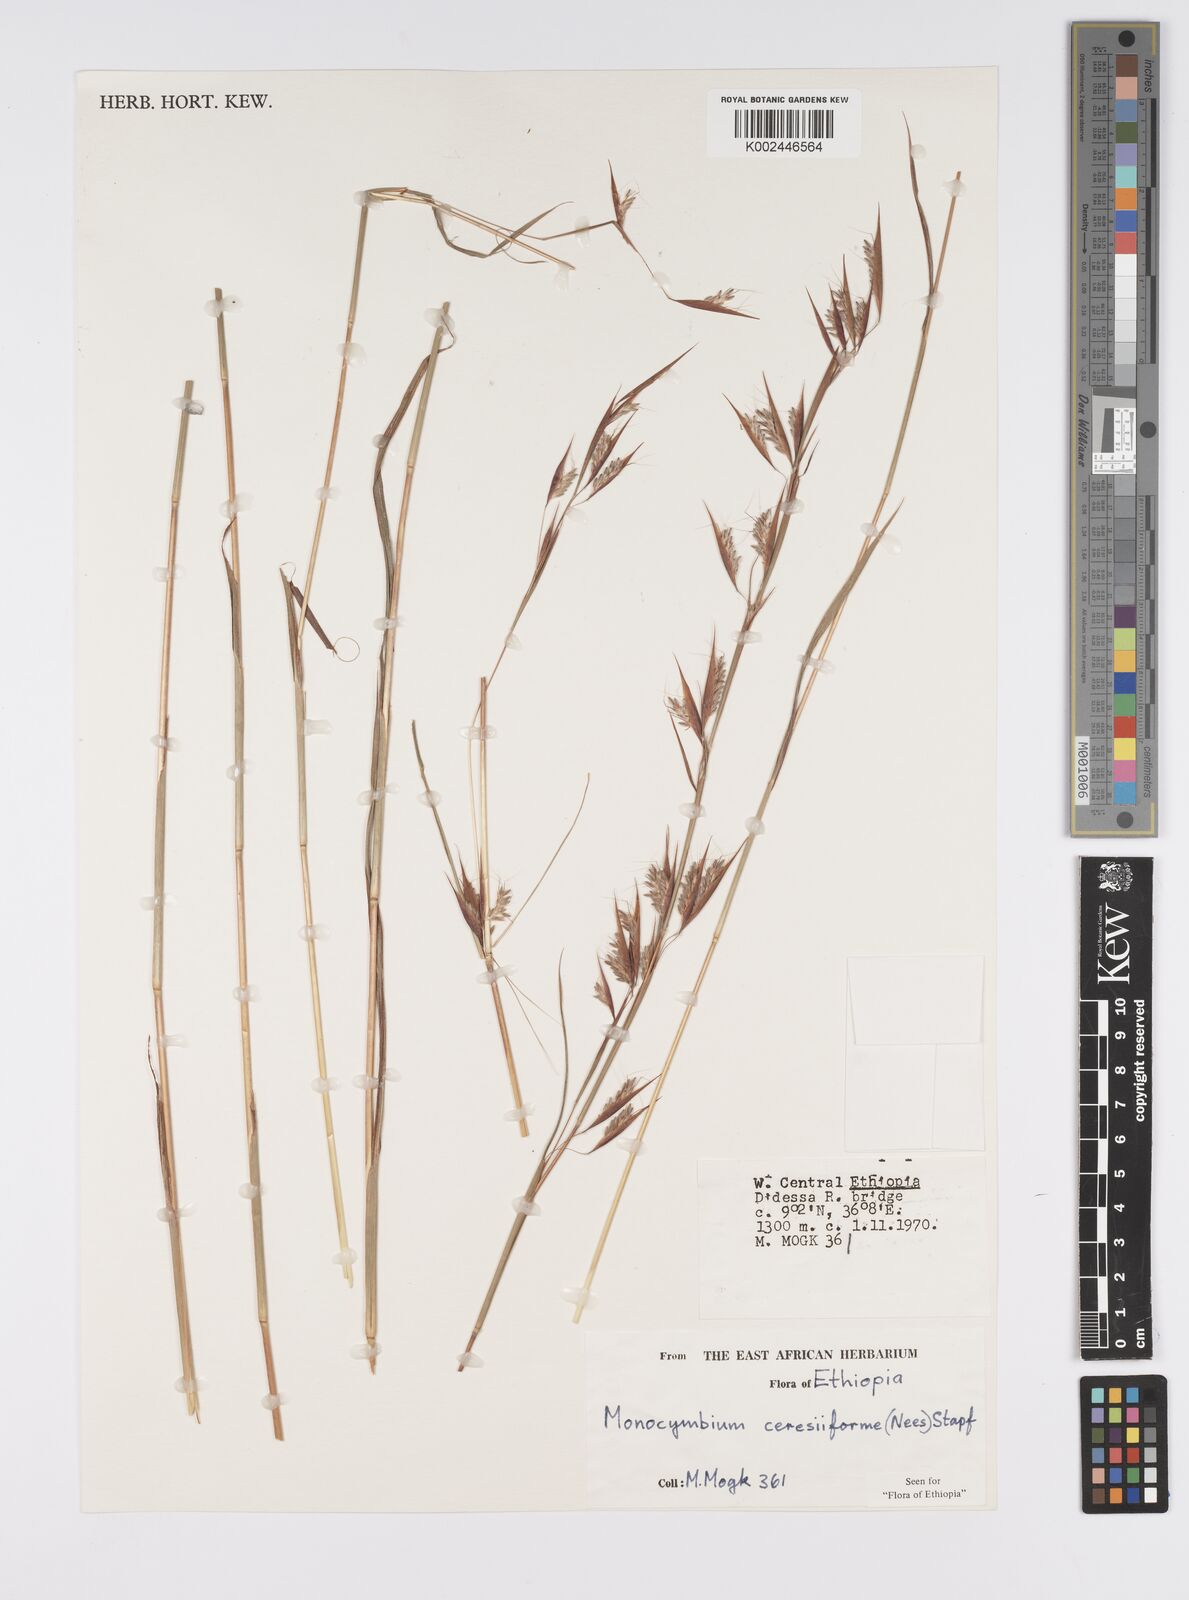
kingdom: Plantae
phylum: Tracheophyta
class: Liliopsida
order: Poales
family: Poaceae
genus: Monocymbium
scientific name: Monocymbium ceresiiforme
